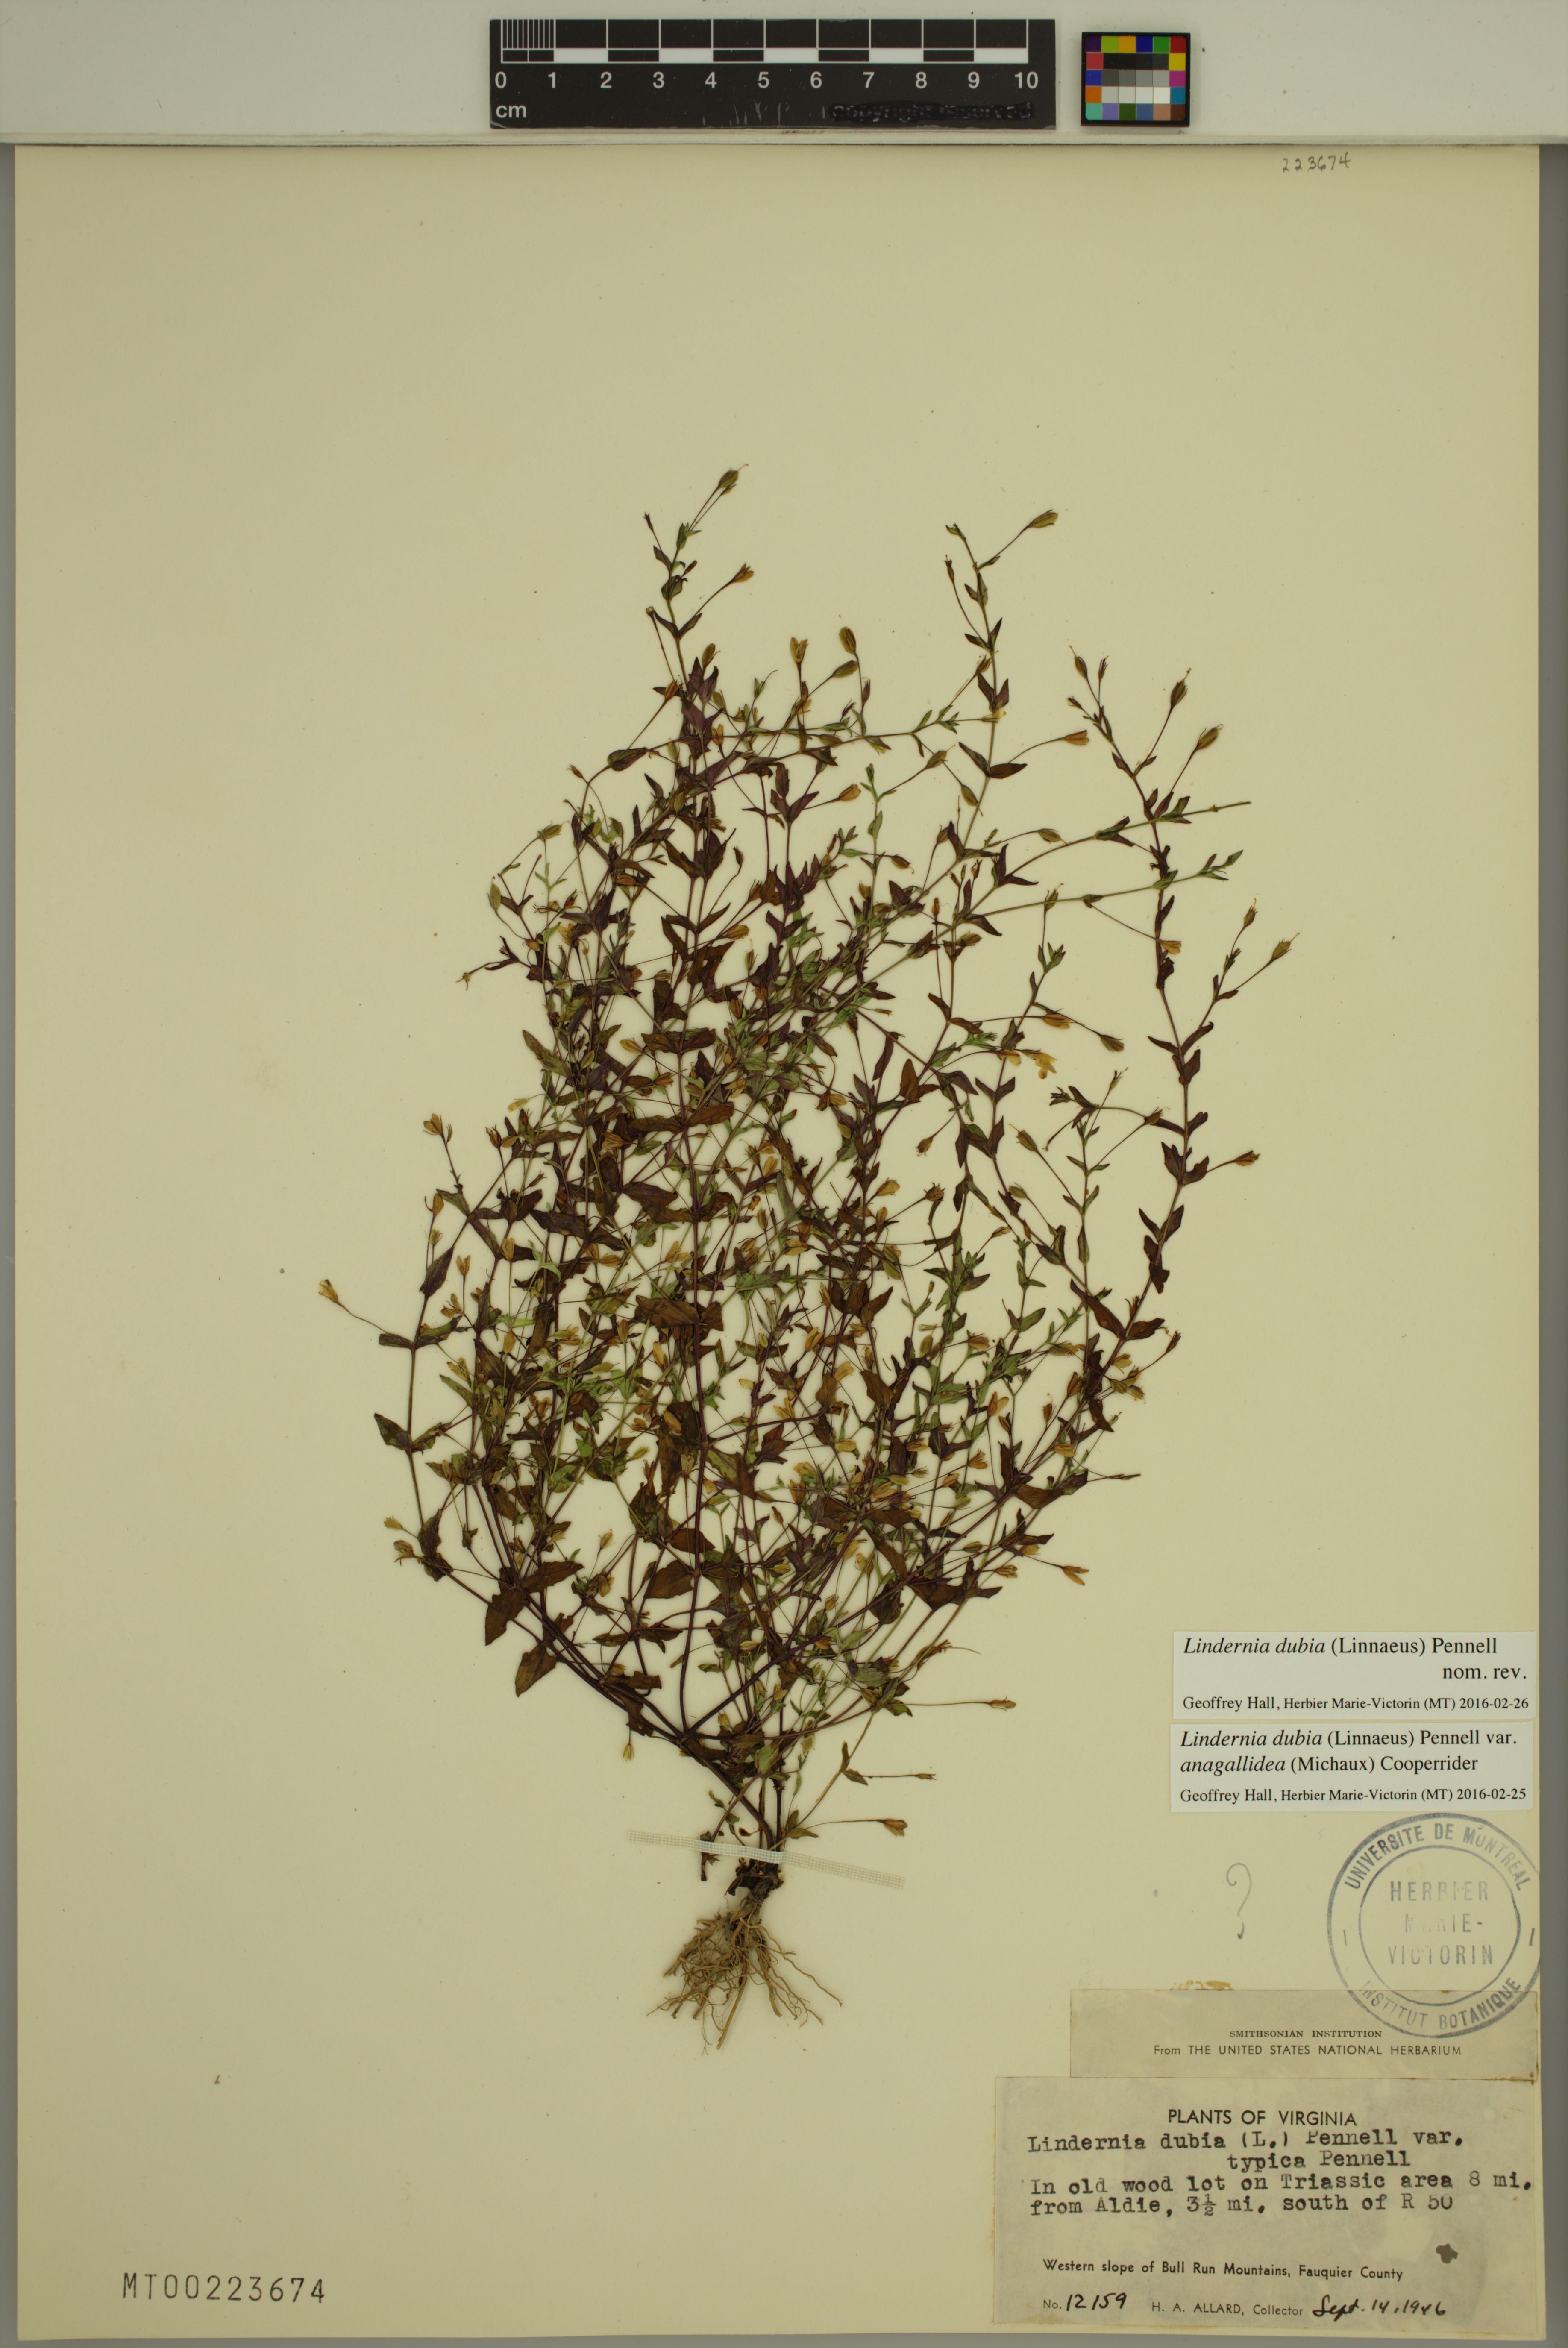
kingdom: Plantae
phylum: Tracheophyta
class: Magnoliopsida
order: Lamiales
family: Linderniaceae
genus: Lindernia
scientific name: Lindernia dubia
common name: Annual false pimpernel
